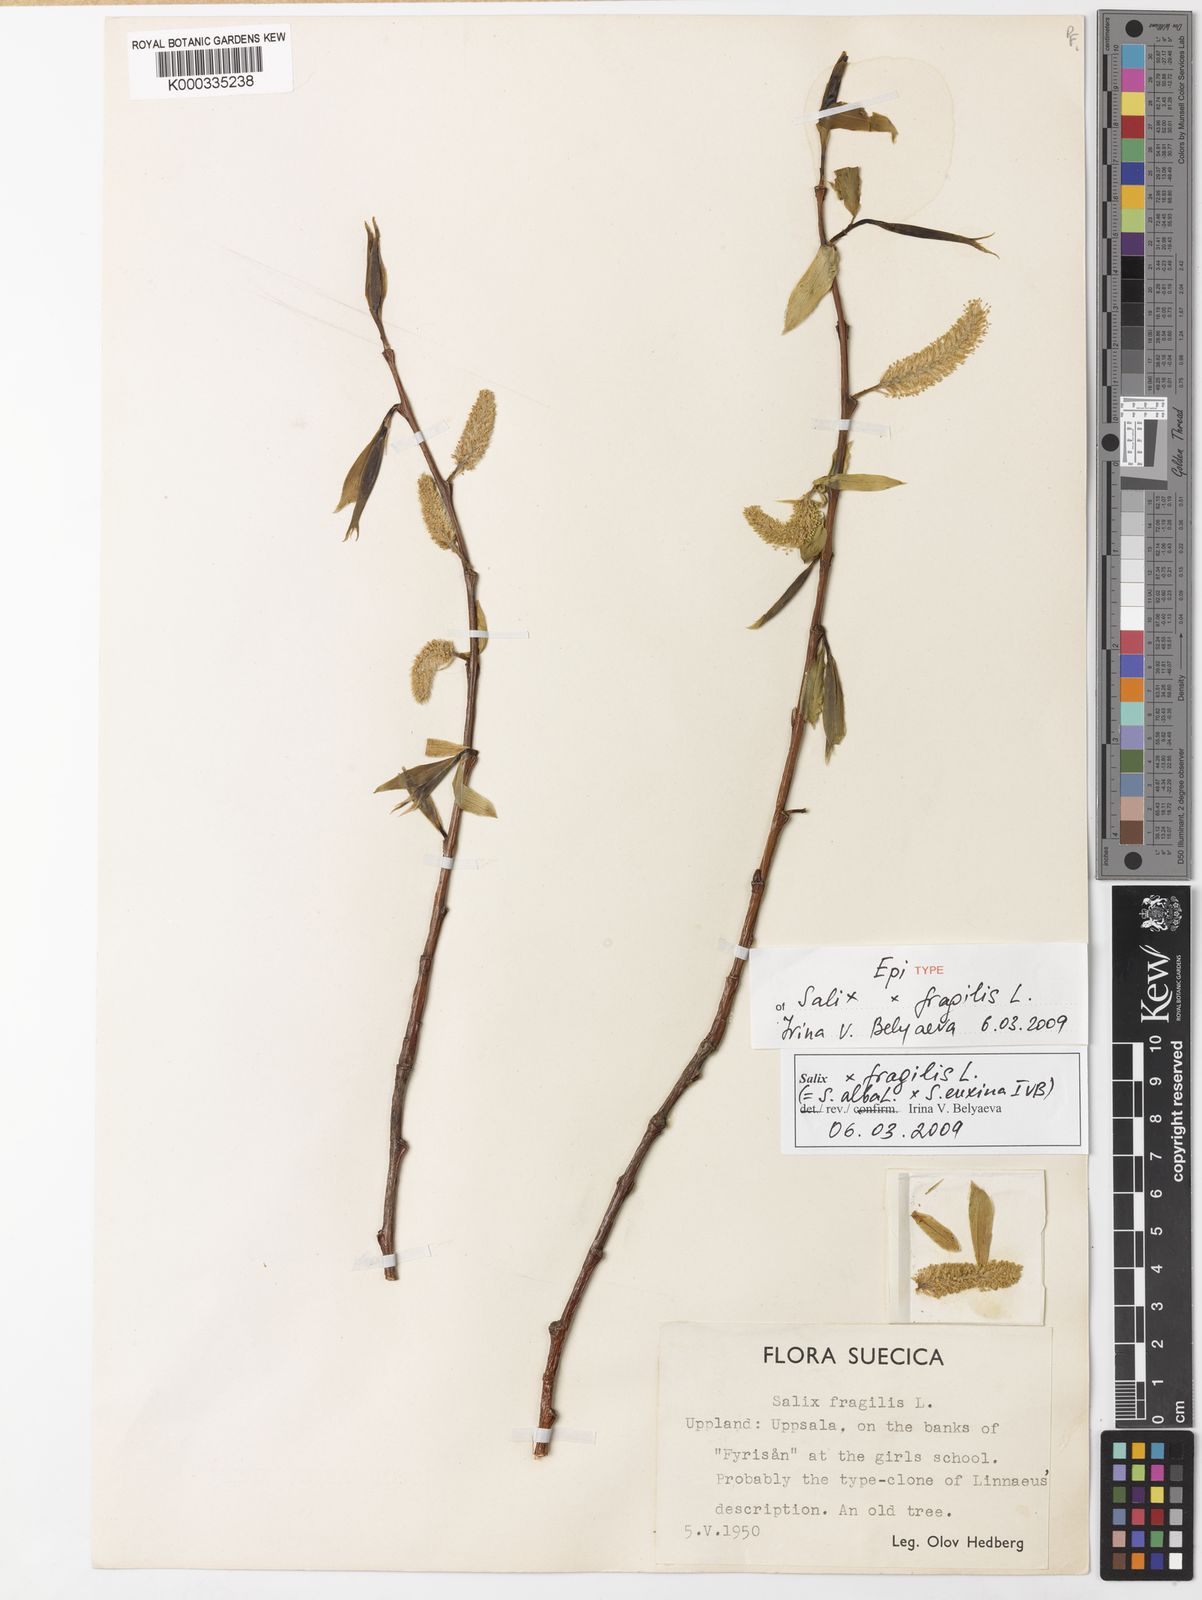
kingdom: Plantae
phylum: Tracheophyta
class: Magnoliopsida
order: Malpighiales
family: Salicaceae
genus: Salix
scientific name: Salix
